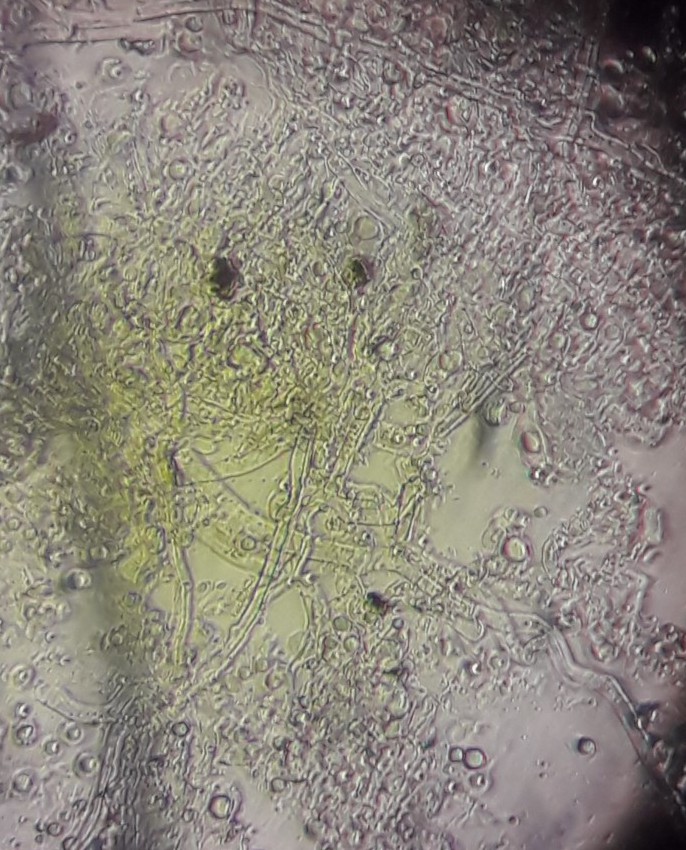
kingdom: Fungi
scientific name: Fungi
